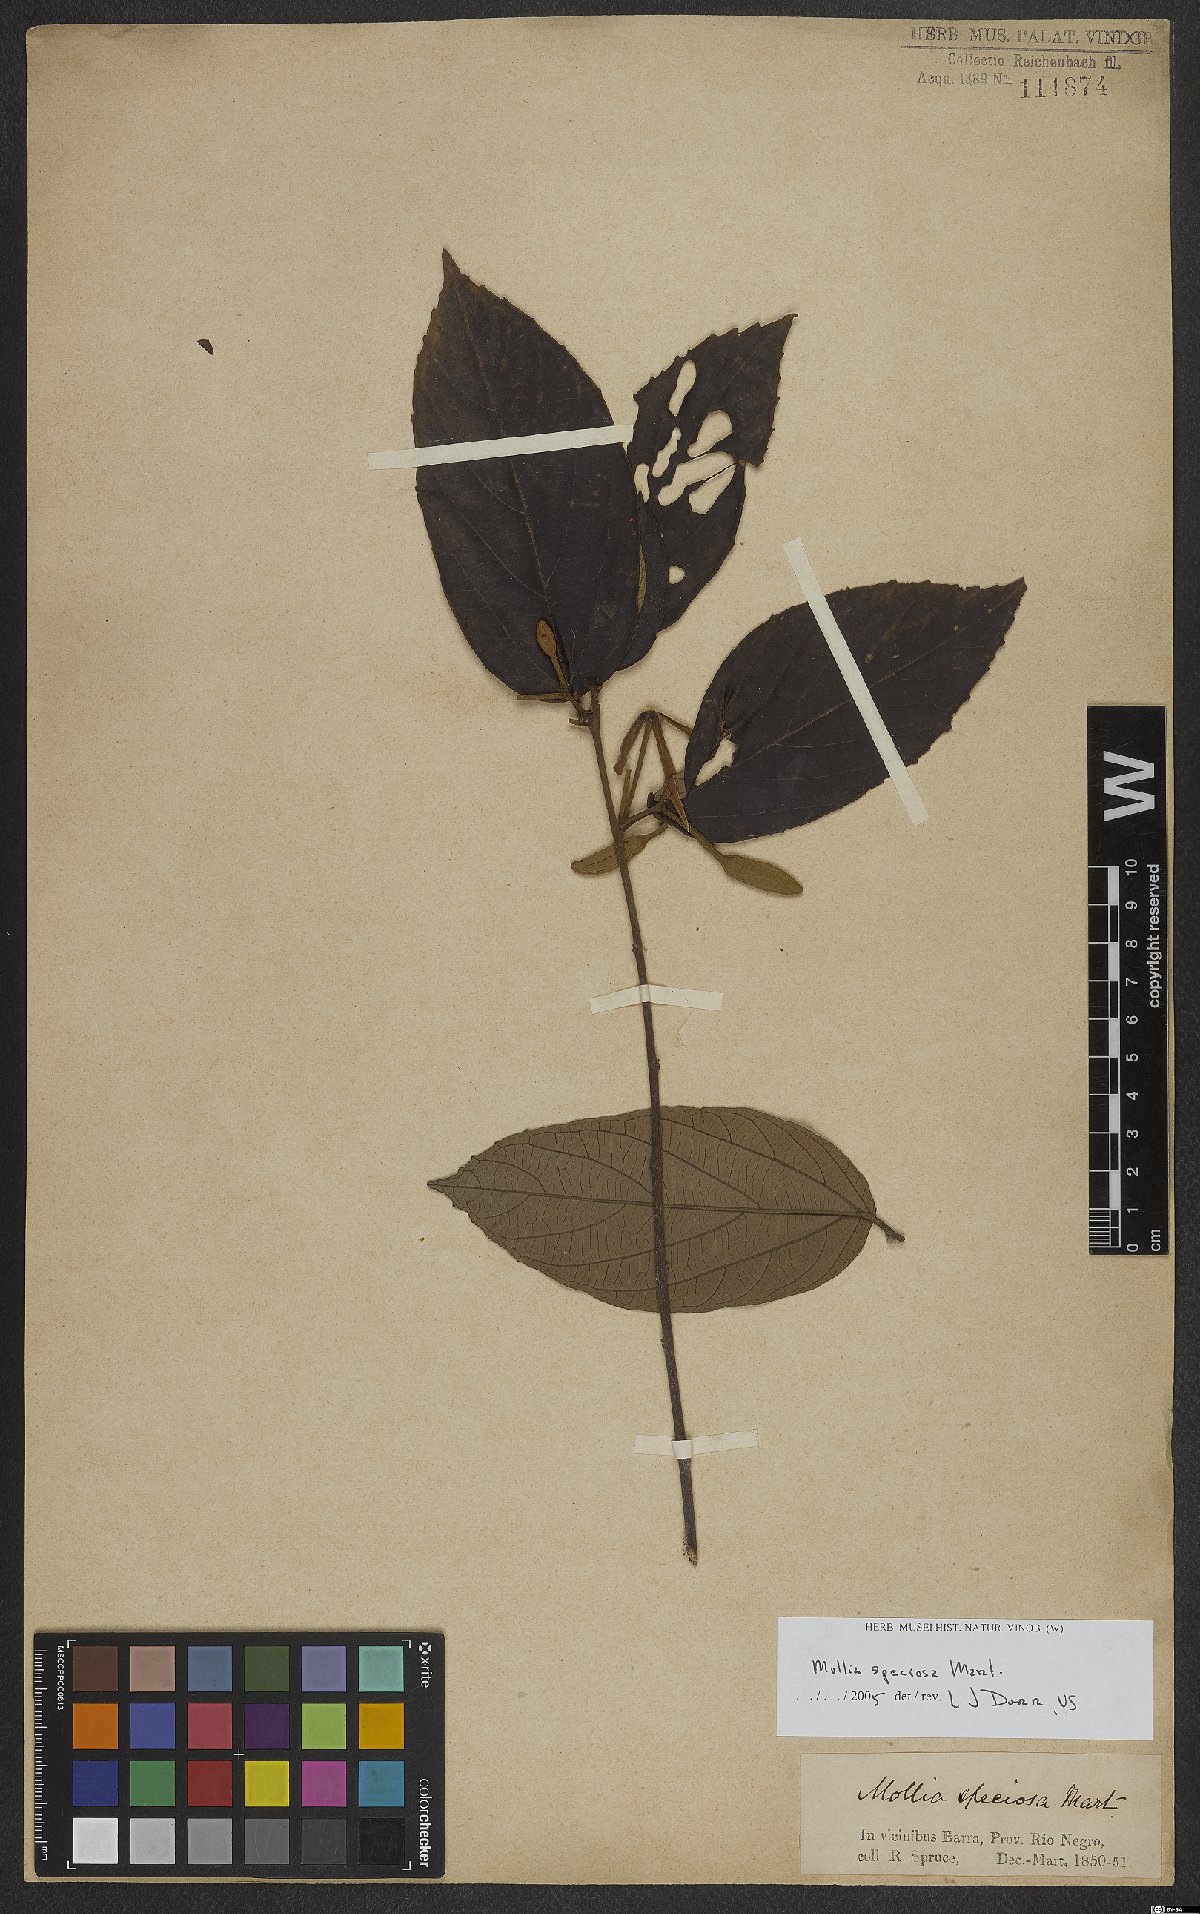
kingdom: Plantae
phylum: Tracheophyta
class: Magnoliopsida
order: Malvales
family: Malvaceae
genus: Mollia
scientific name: Mollia speciosa
